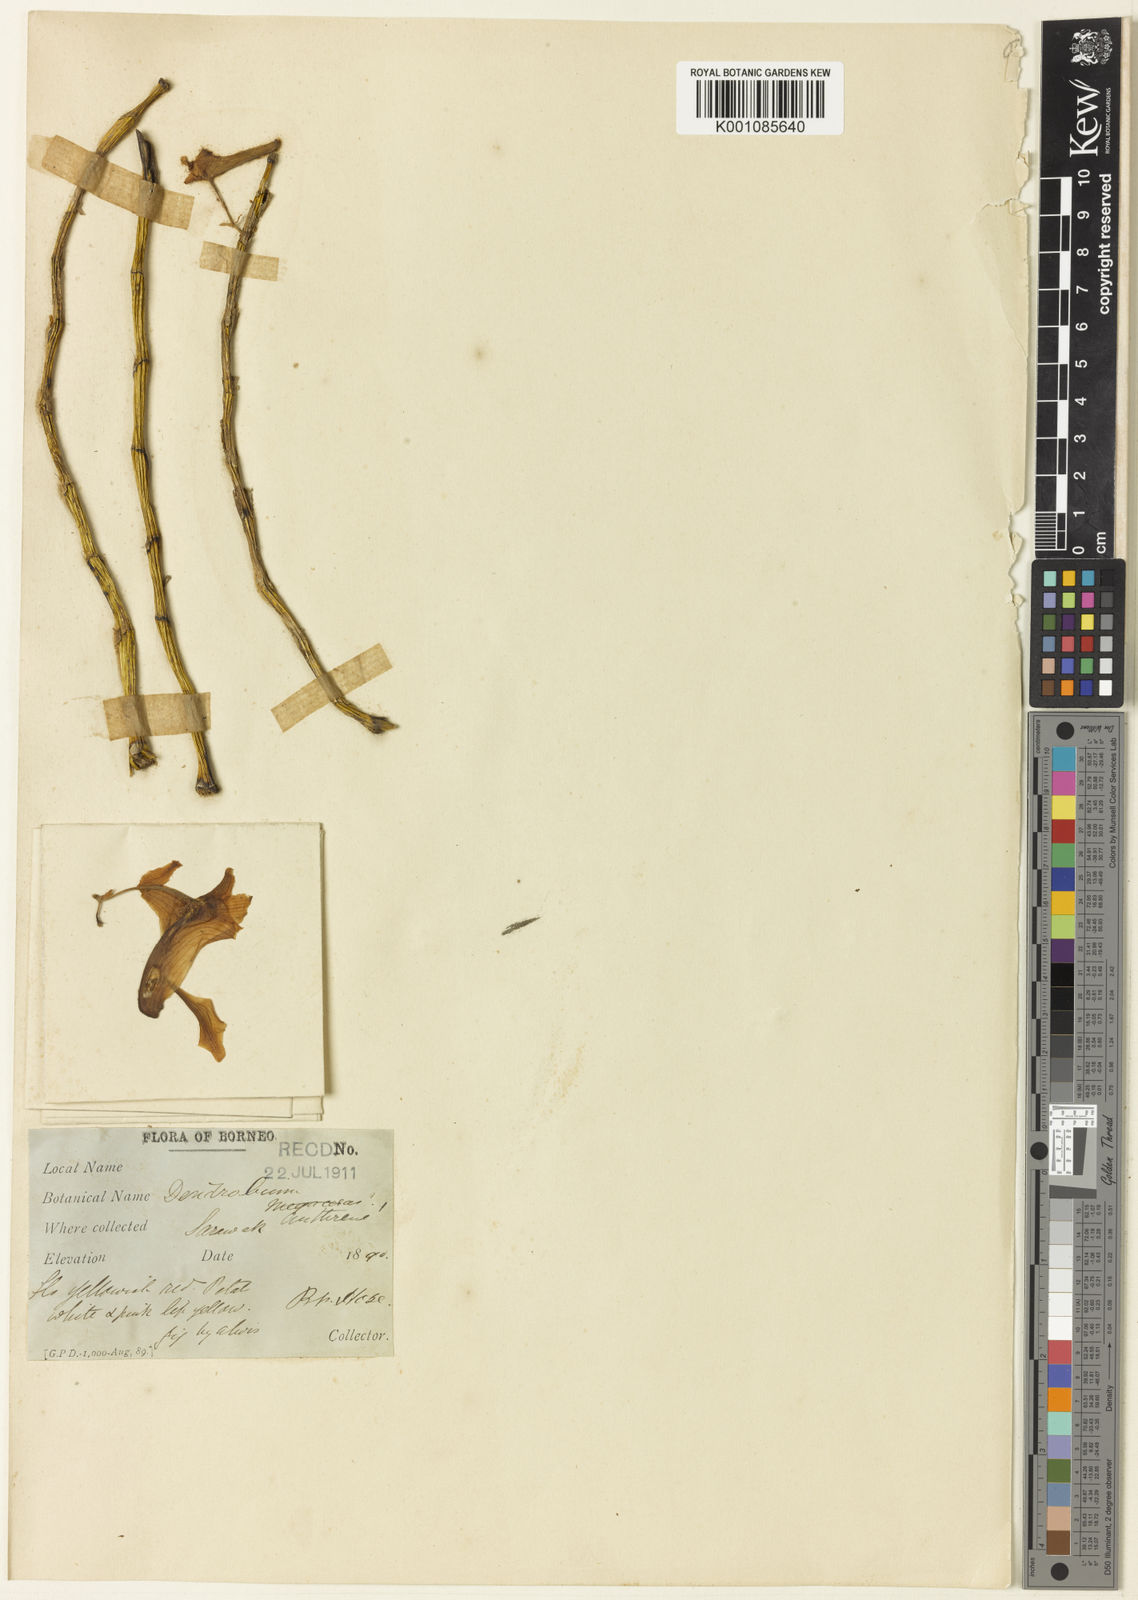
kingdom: Plantae
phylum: Tracheophyta
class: Liliopsida
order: Asparagales
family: Orchidaceae
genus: Dendrobium
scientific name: Dendrobium anthrene
